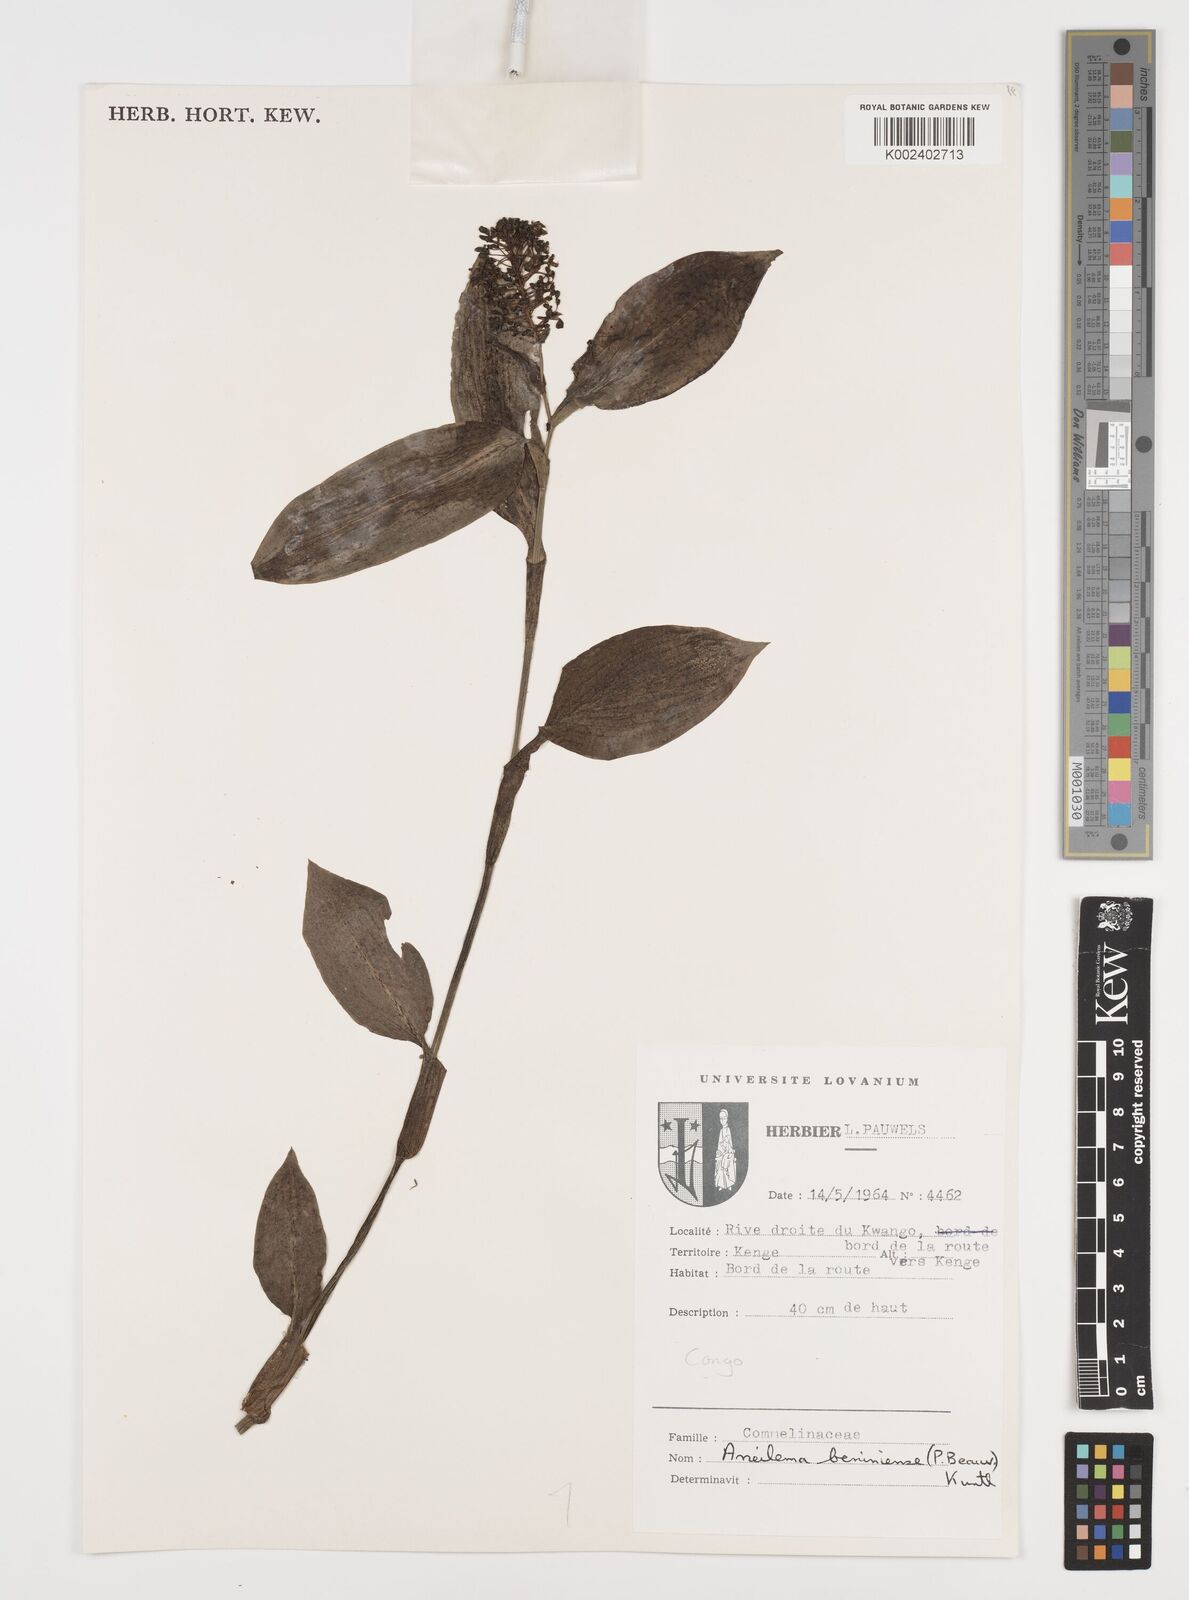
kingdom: Plantae
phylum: Tracheophyta
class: Liliopsida
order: Commelinales
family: Commelinaceae
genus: Aneilema
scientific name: Aneilema beniniense
